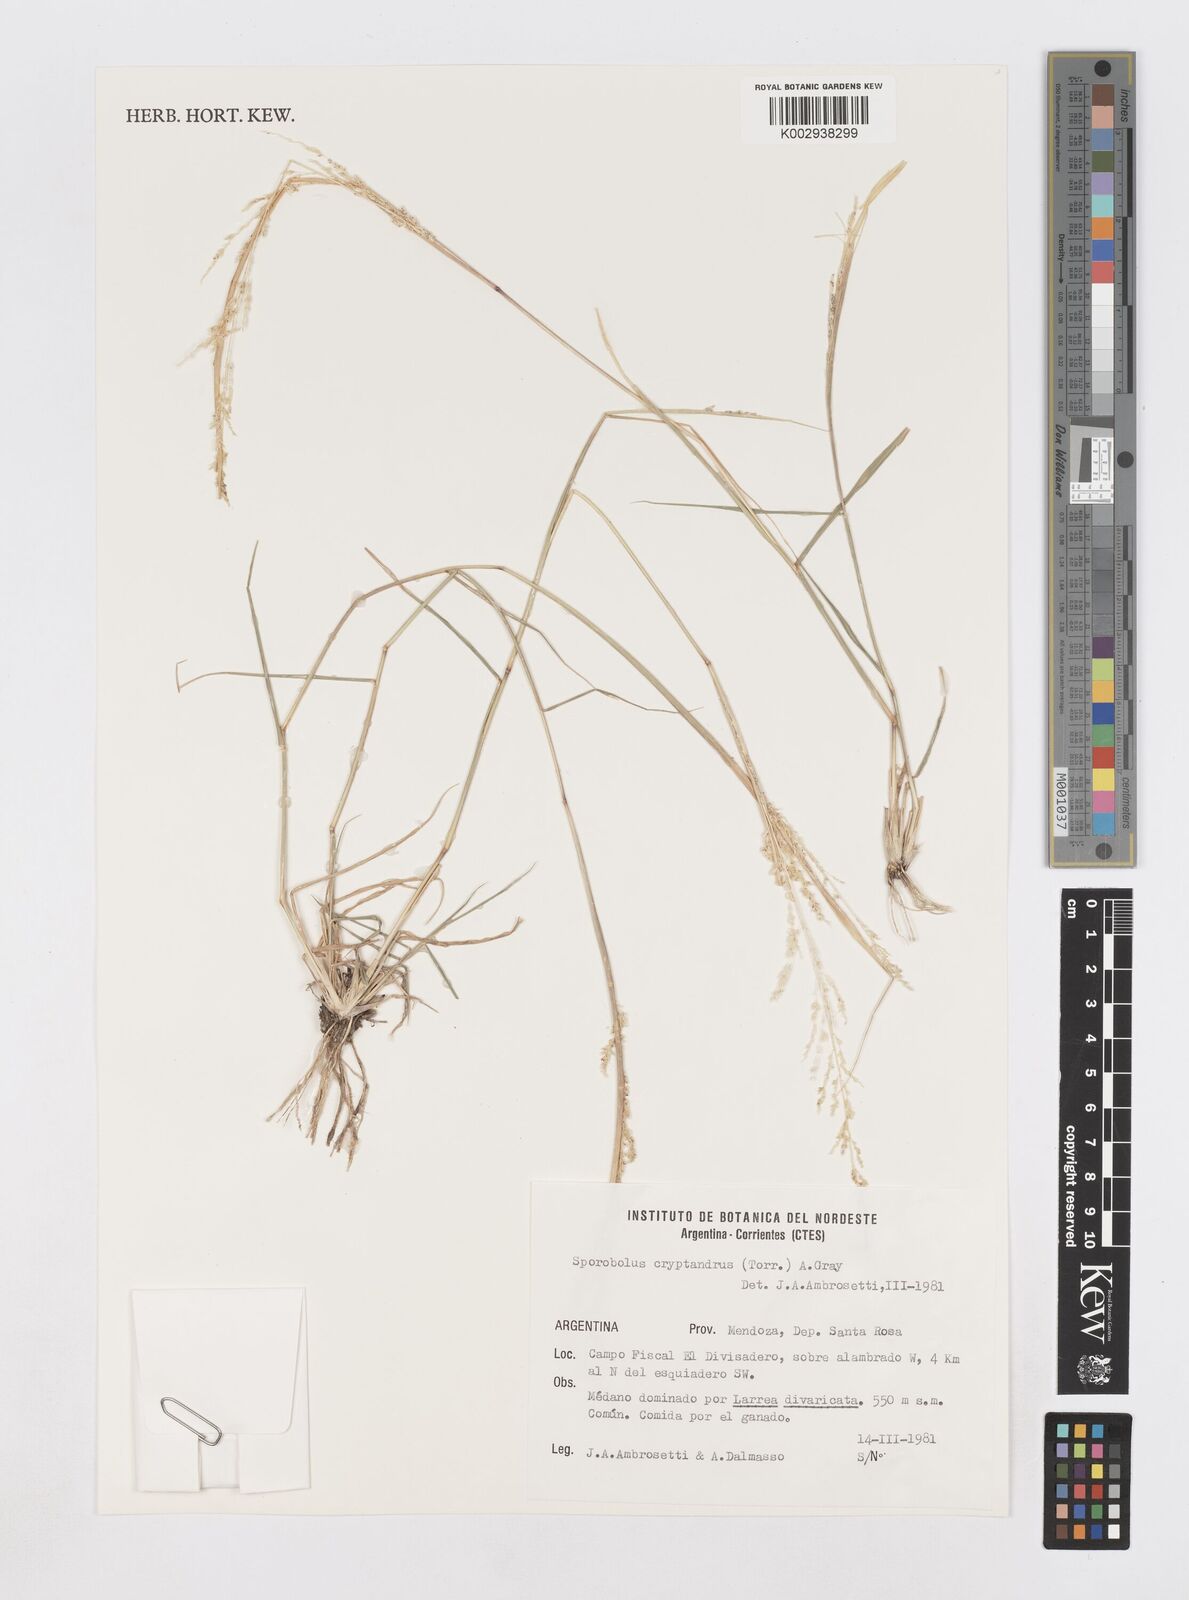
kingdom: Plantae
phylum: Tracheophyta
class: Liliopsida
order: Poales
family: Poaceae
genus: Sporobolus
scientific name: Sporobolus cryptandrus
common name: Sand dropseed
